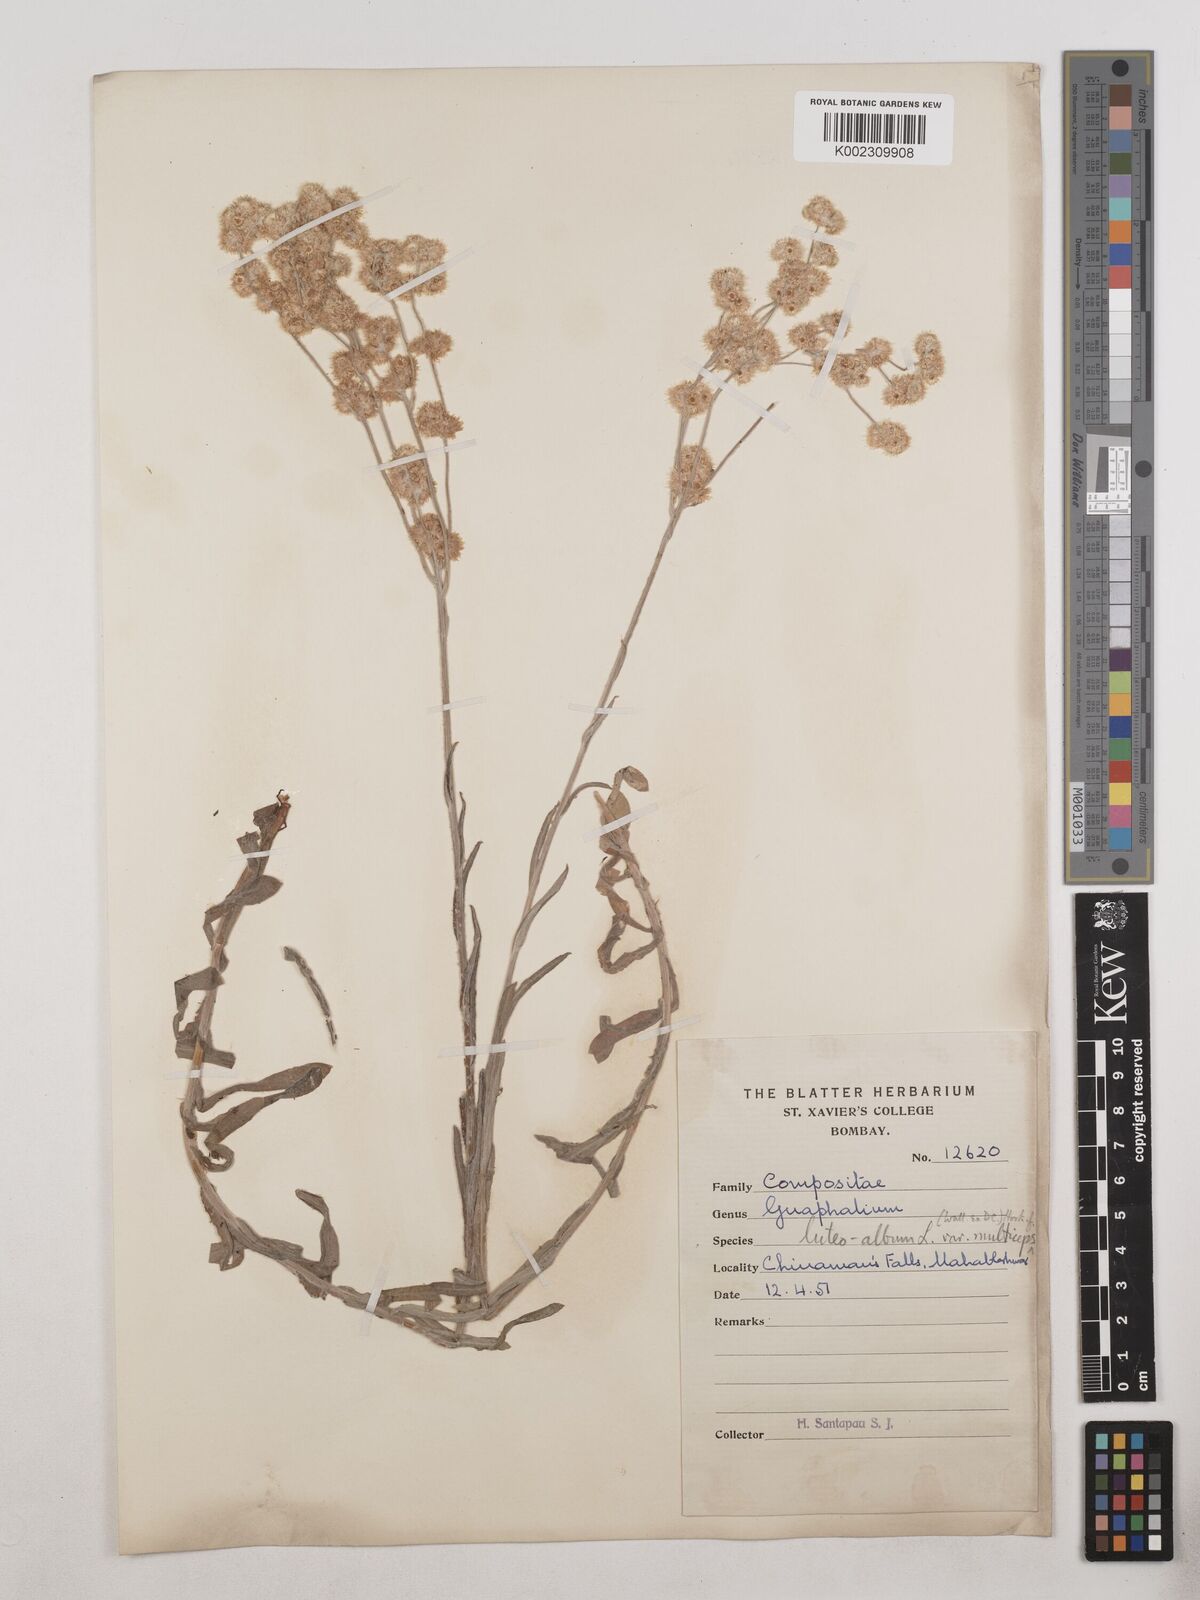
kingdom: Plantae
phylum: Tracheophyta
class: Magnoliopsida
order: Asterales
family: Asteraceae
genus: Helichrysum
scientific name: Helichrysum luteoalbum
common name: Daisy
